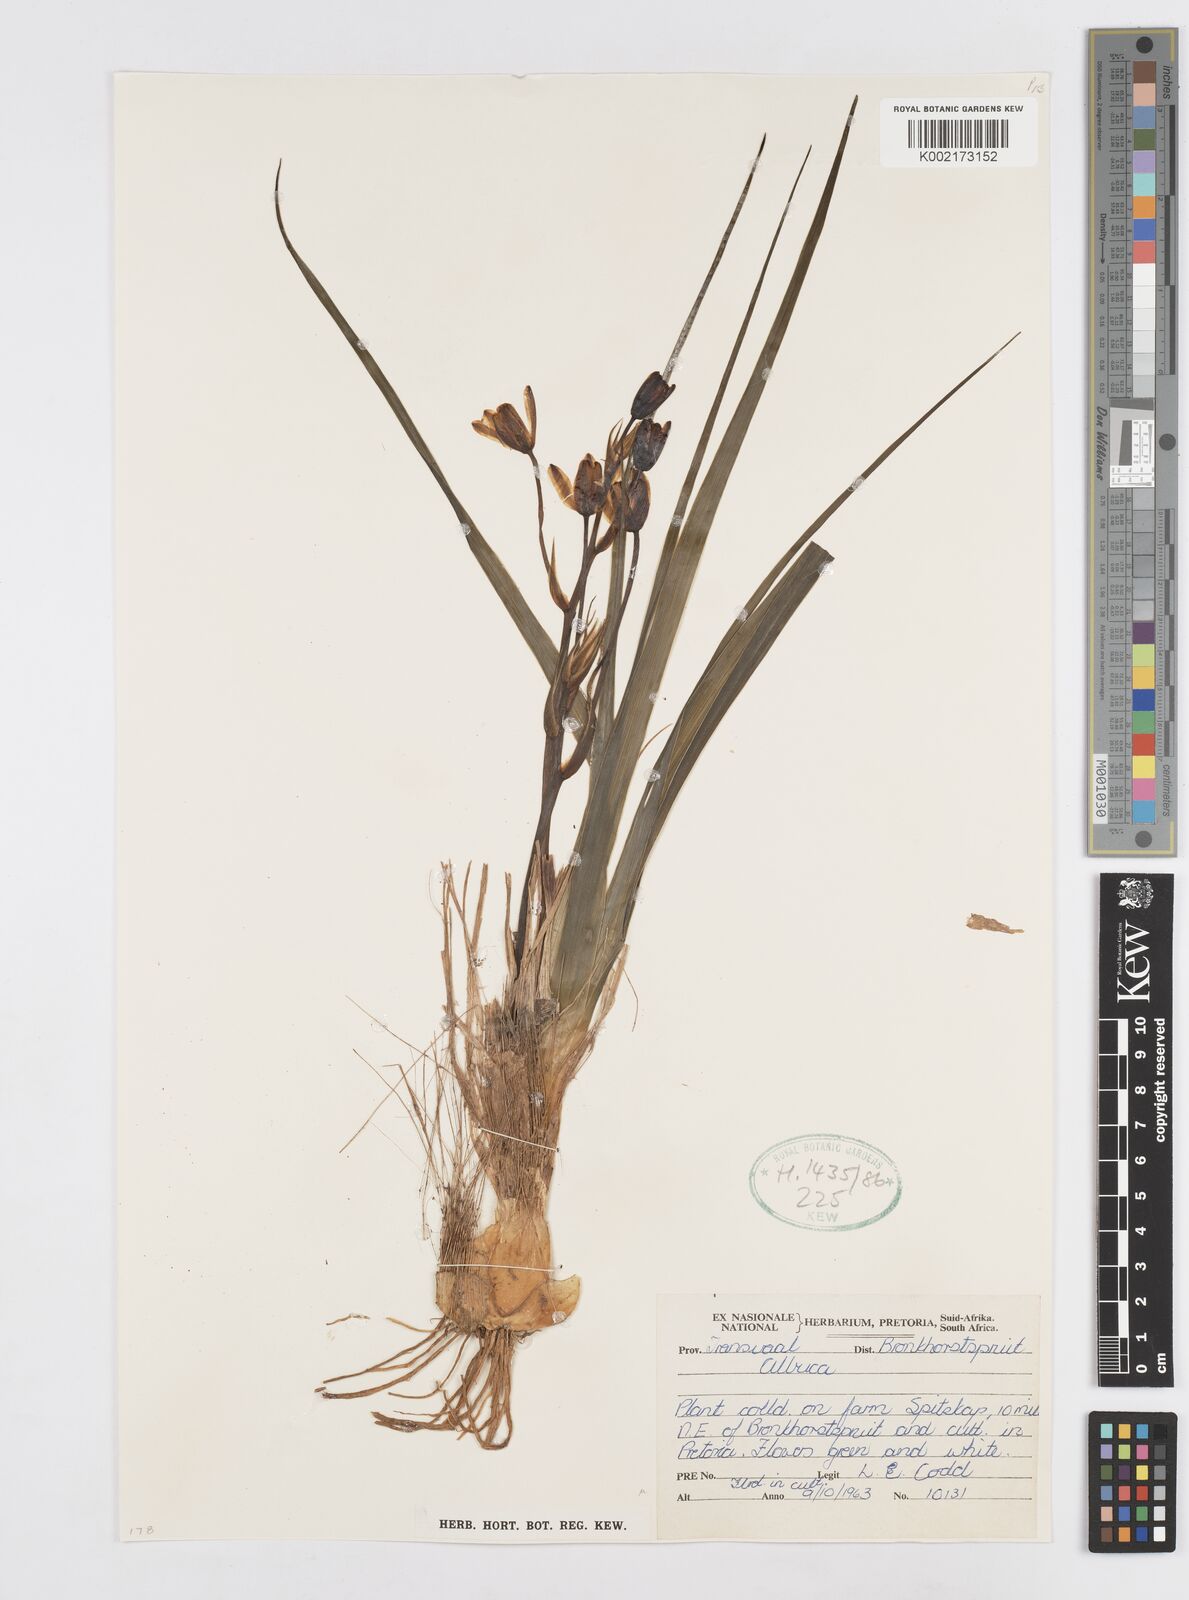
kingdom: Plantae
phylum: Tracheophyta
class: Liliopsida
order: Asparagales
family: Asparagaceae
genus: Albuca
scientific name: Albuca
